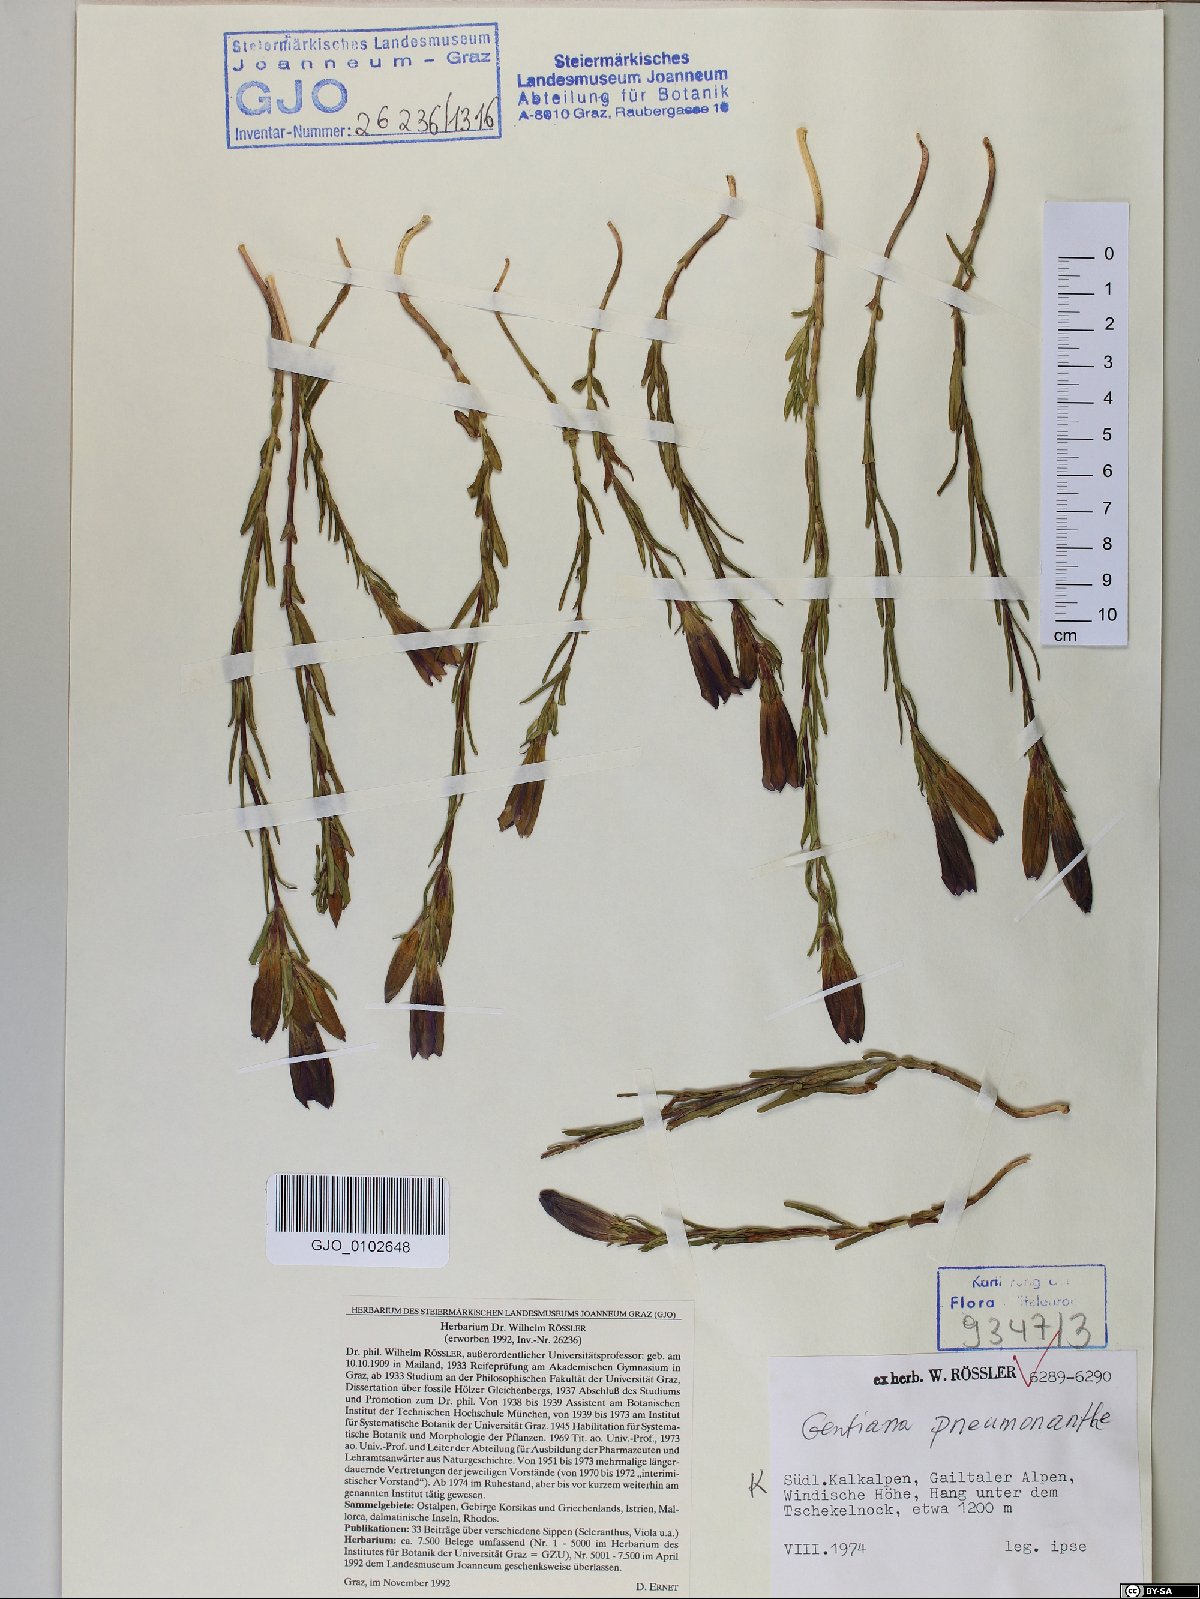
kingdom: Plantae
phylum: Tracheophyta
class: Magnoliopsida
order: Gentianales
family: Gentianaceae
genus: Gentiana
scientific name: Gentiana pneumonanthe
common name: Marsh gentian
